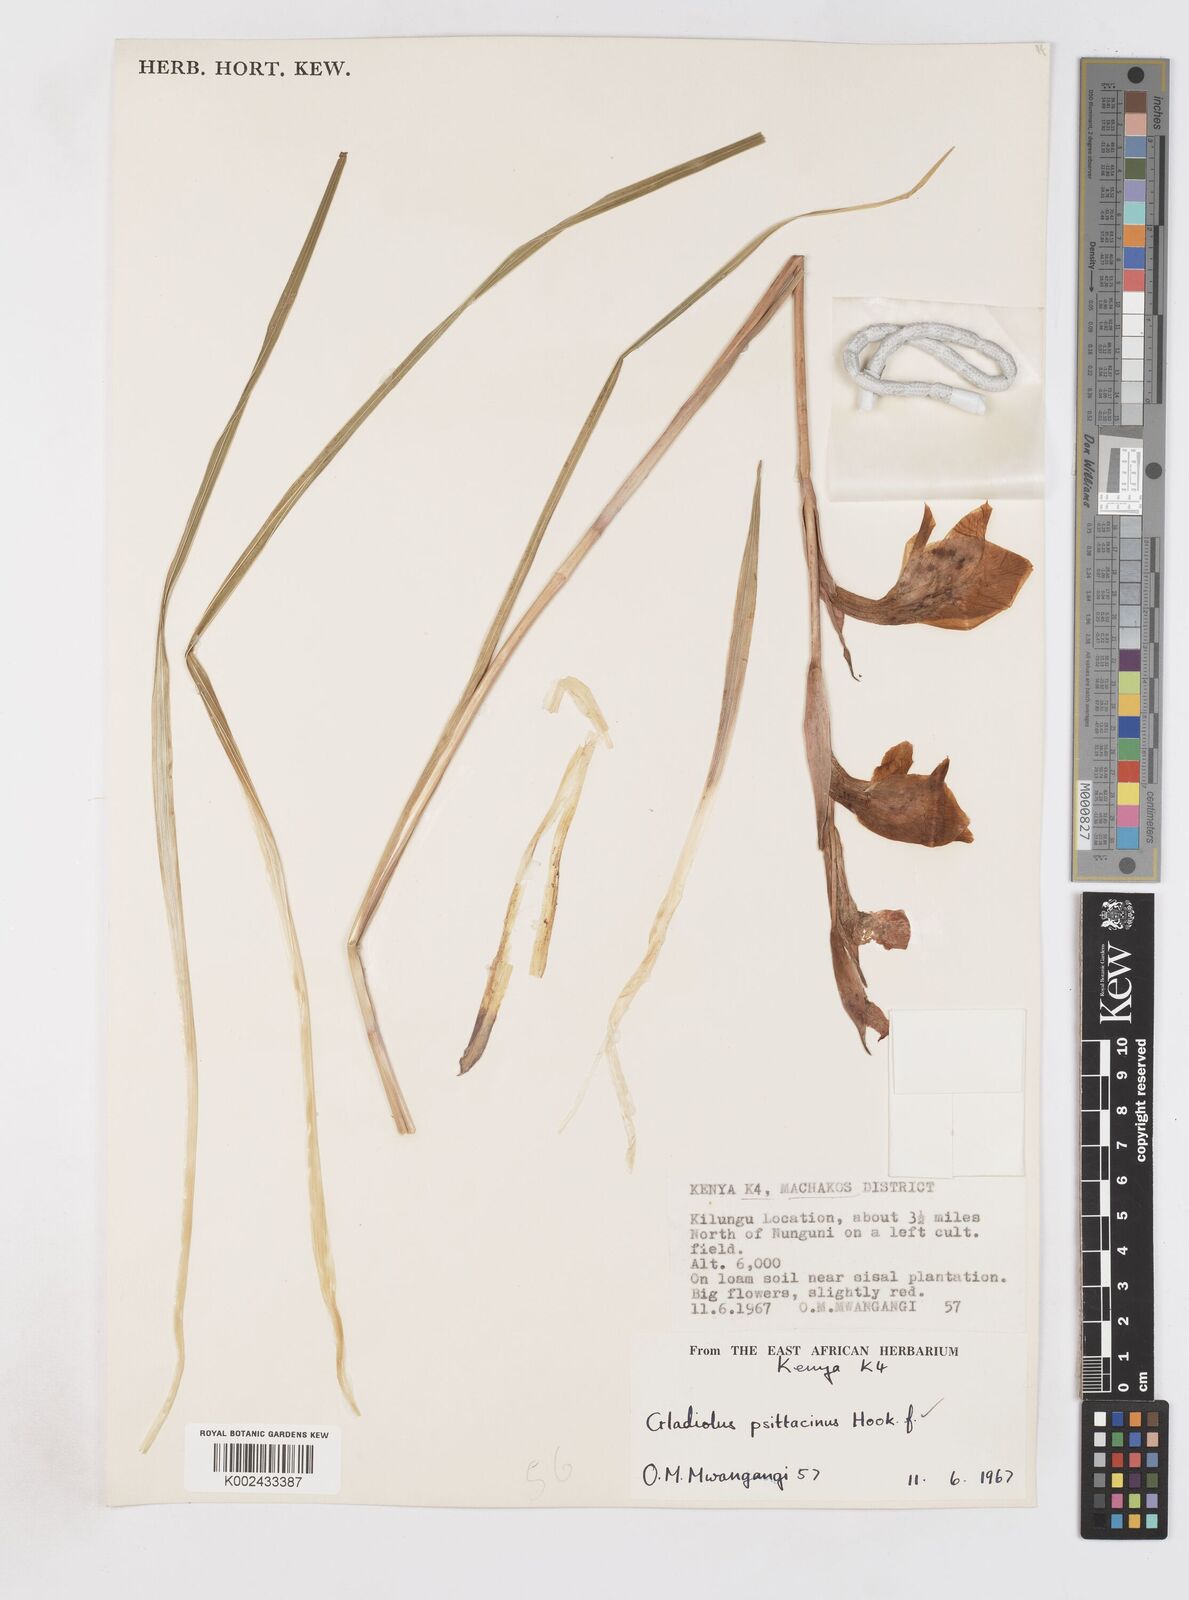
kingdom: Plantae
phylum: Tracheophyta
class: Liliopsida
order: Asparagales
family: Iridaceae
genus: Gladiolus
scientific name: Gladiolus dalenii
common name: Cornflag
